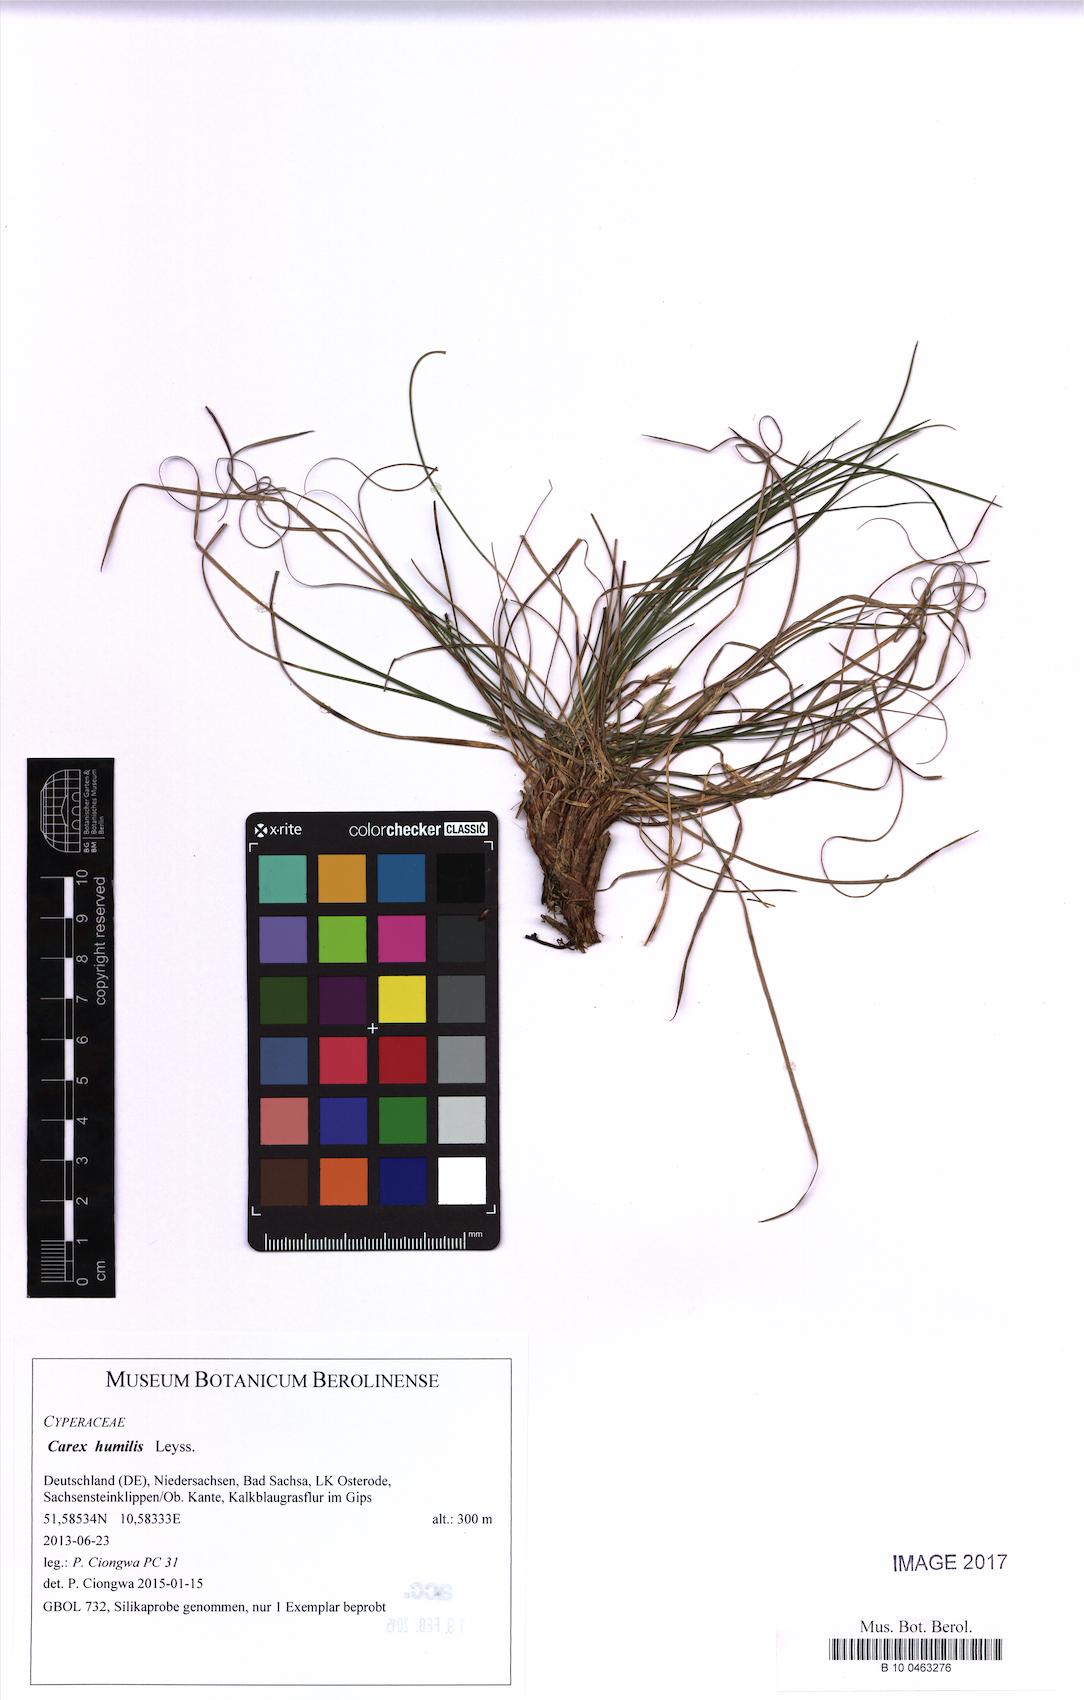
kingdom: Plantae
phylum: Tracheophyta
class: Liliopsida
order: Poales
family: Cyperaceae
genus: Carex
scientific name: Carex humilis
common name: Dwarf sedge
